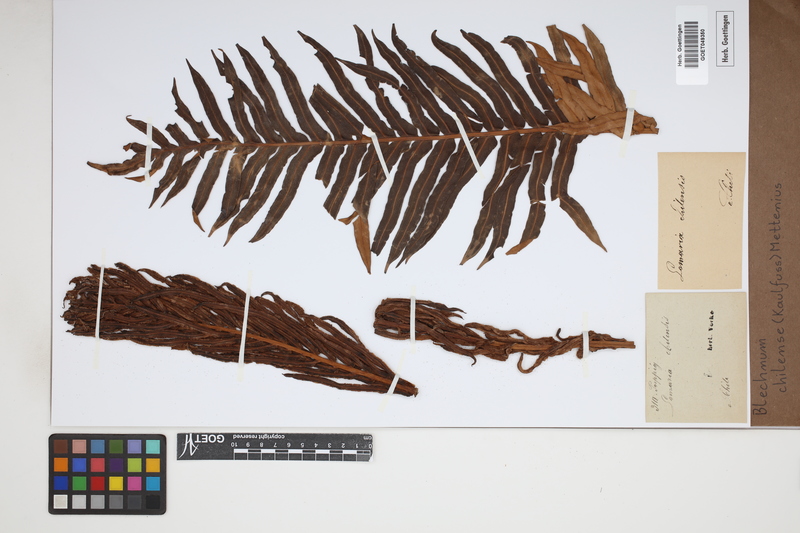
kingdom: Plantae
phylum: Tracheophyta
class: Polypodiopsida
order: Polypodiales
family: Blechnaceae
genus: Parablechnum
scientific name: Parablechnum chilense
